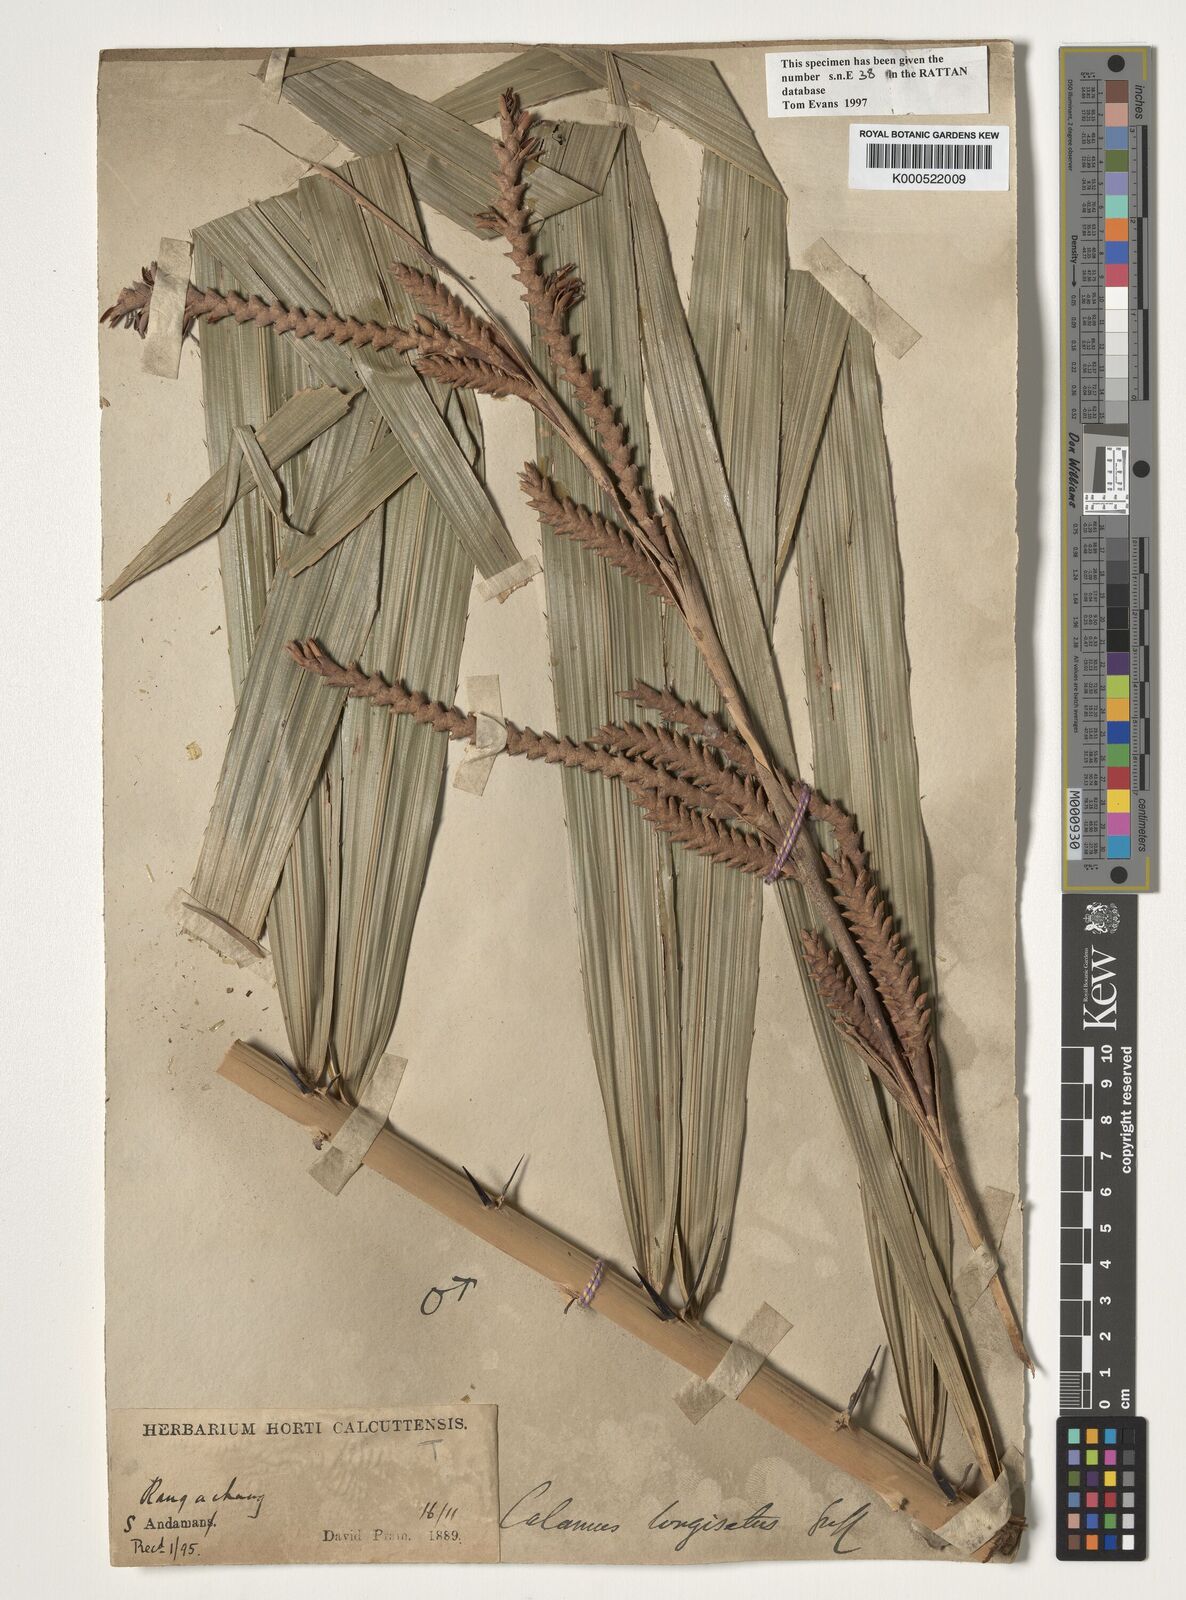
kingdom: Plantae
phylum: Tracheophyta
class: Liliopsida
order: Arecales
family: Arecaceae
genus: Calamus
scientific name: Calamus longisetus
